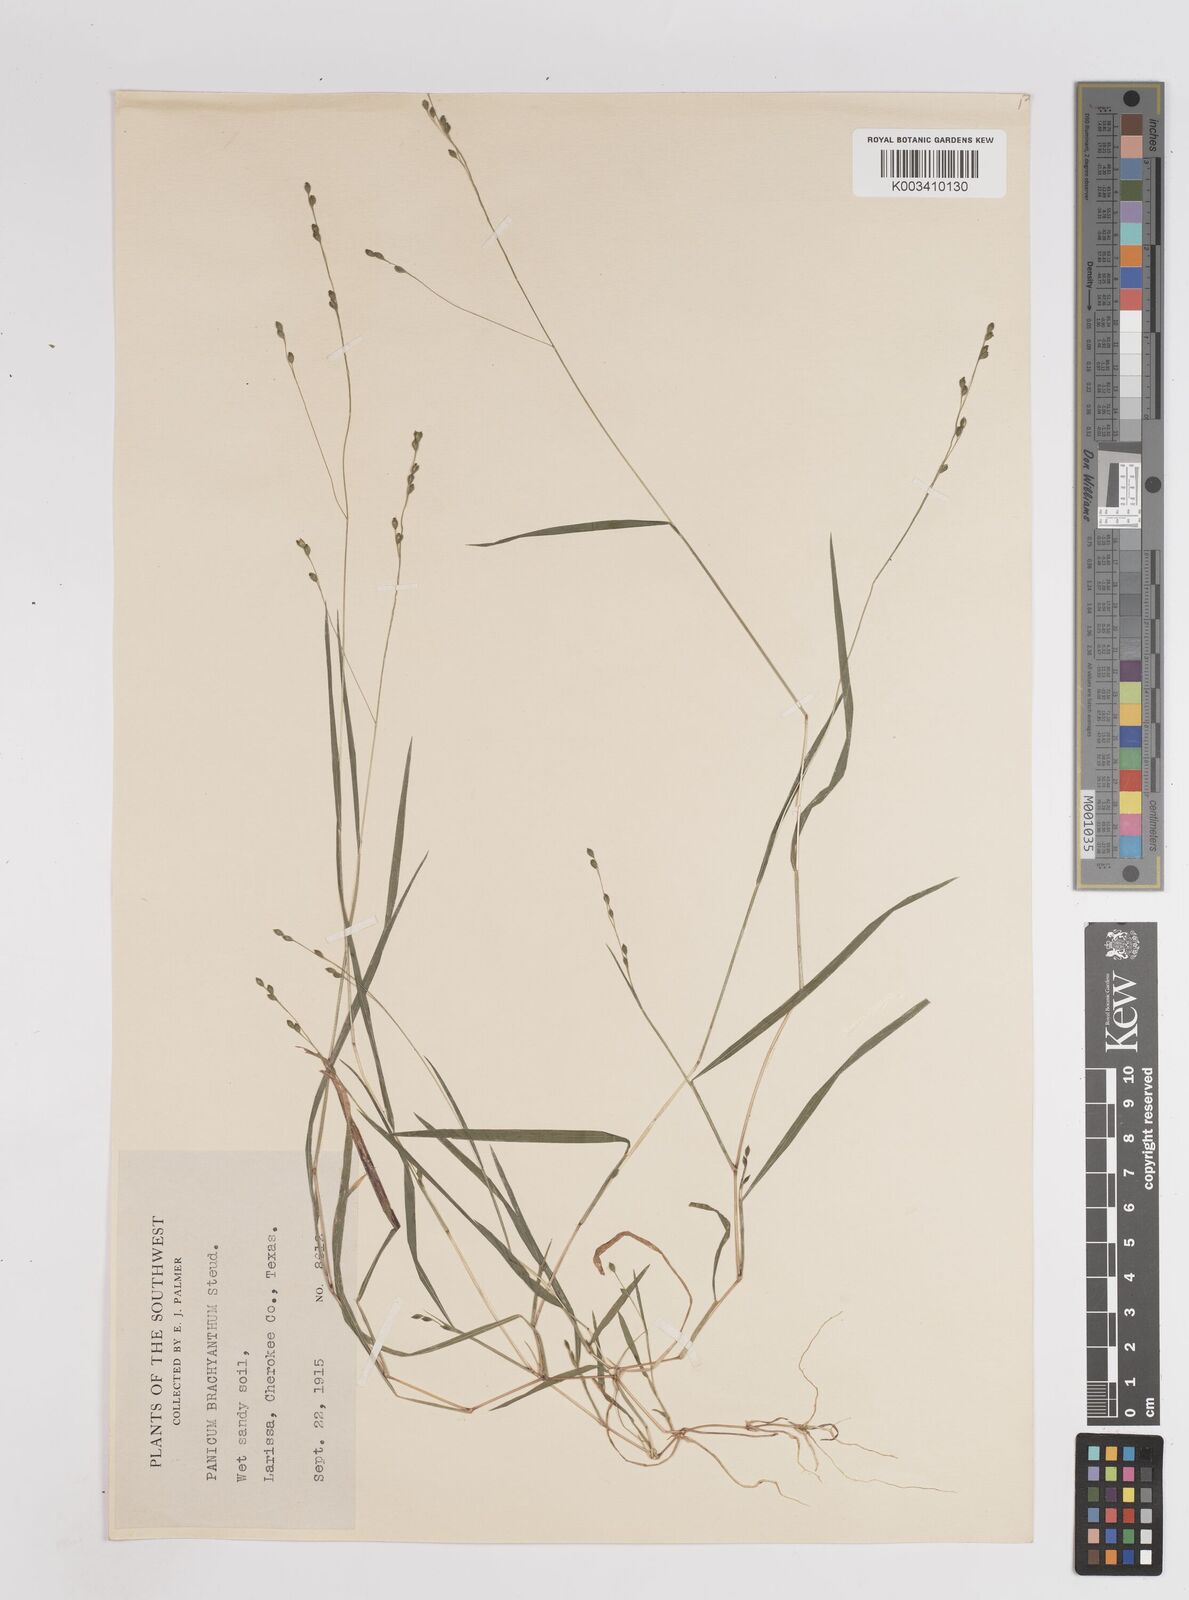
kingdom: Plantae
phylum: Tracheophyta
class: Liliopsida
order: Poales
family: Poaceae
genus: Kellochloa
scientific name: Kellochloa brachyantha
